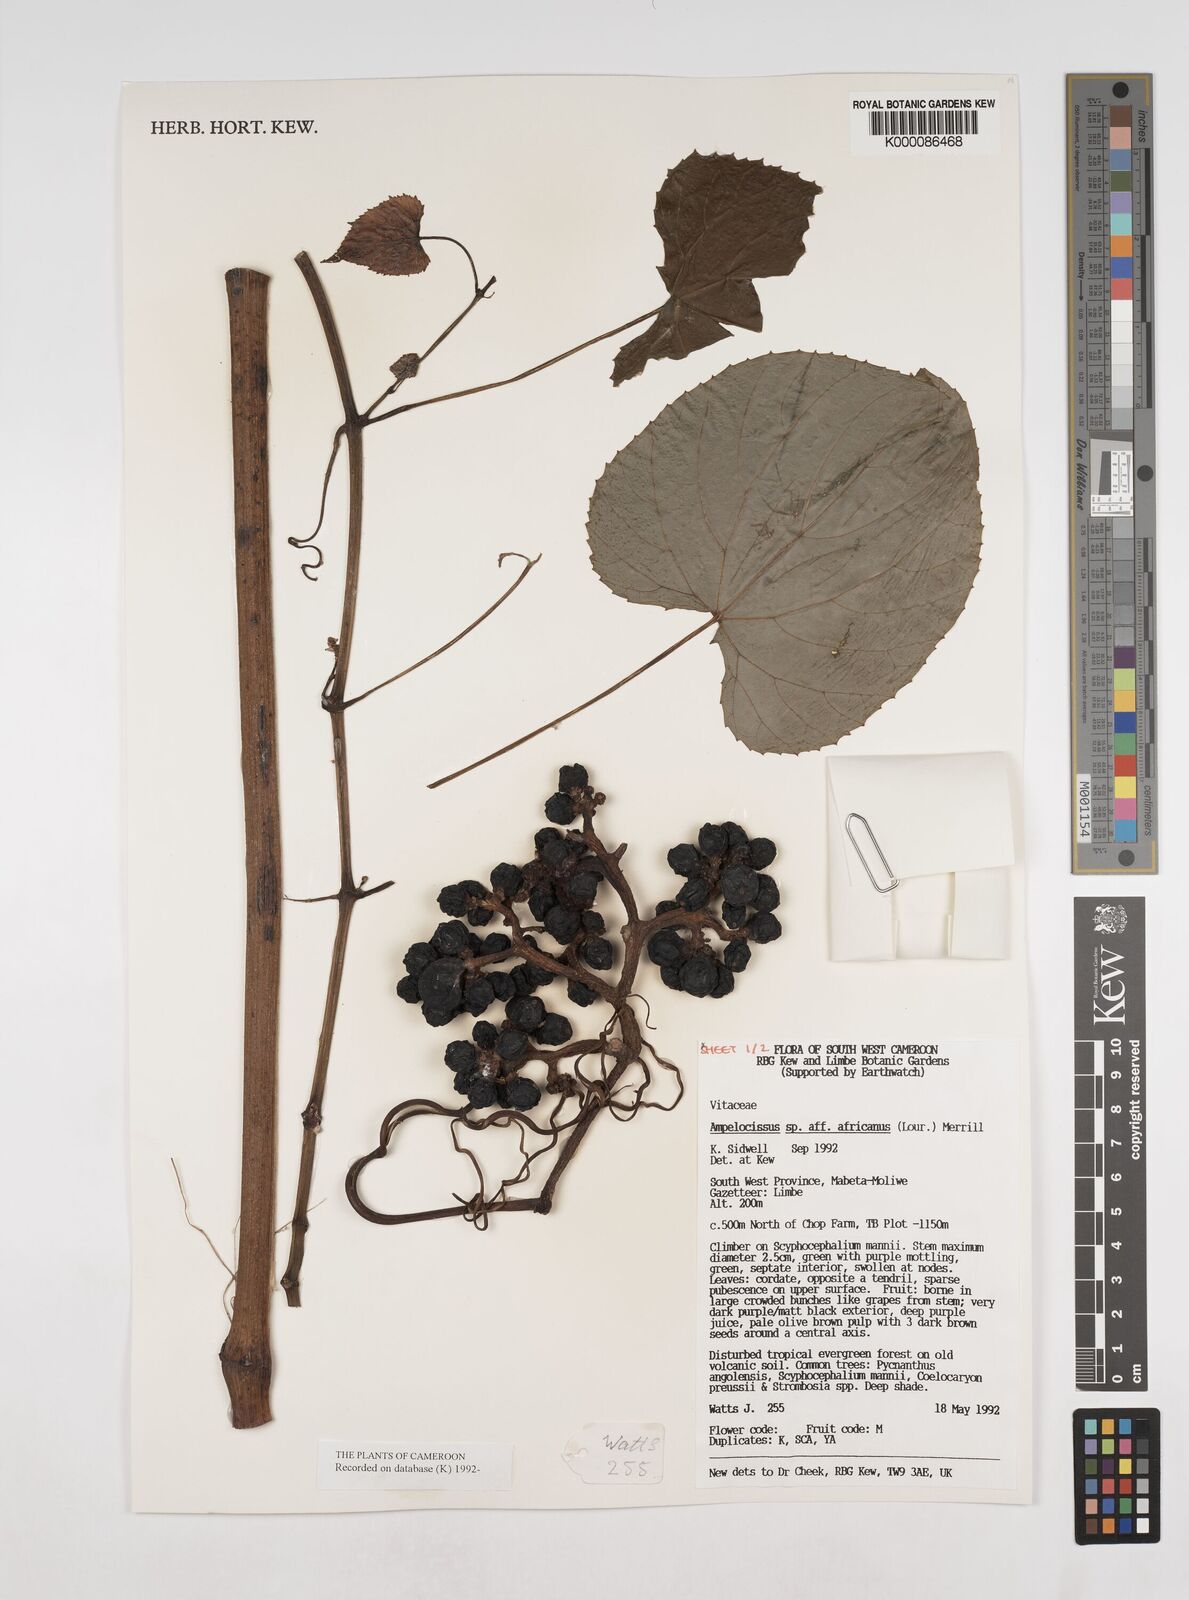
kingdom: Plantae
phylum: Tracheophyta
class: Magnoliopsida
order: Vitales
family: Vitaceae
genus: Ampelocissus
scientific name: Ampelocissus africana
